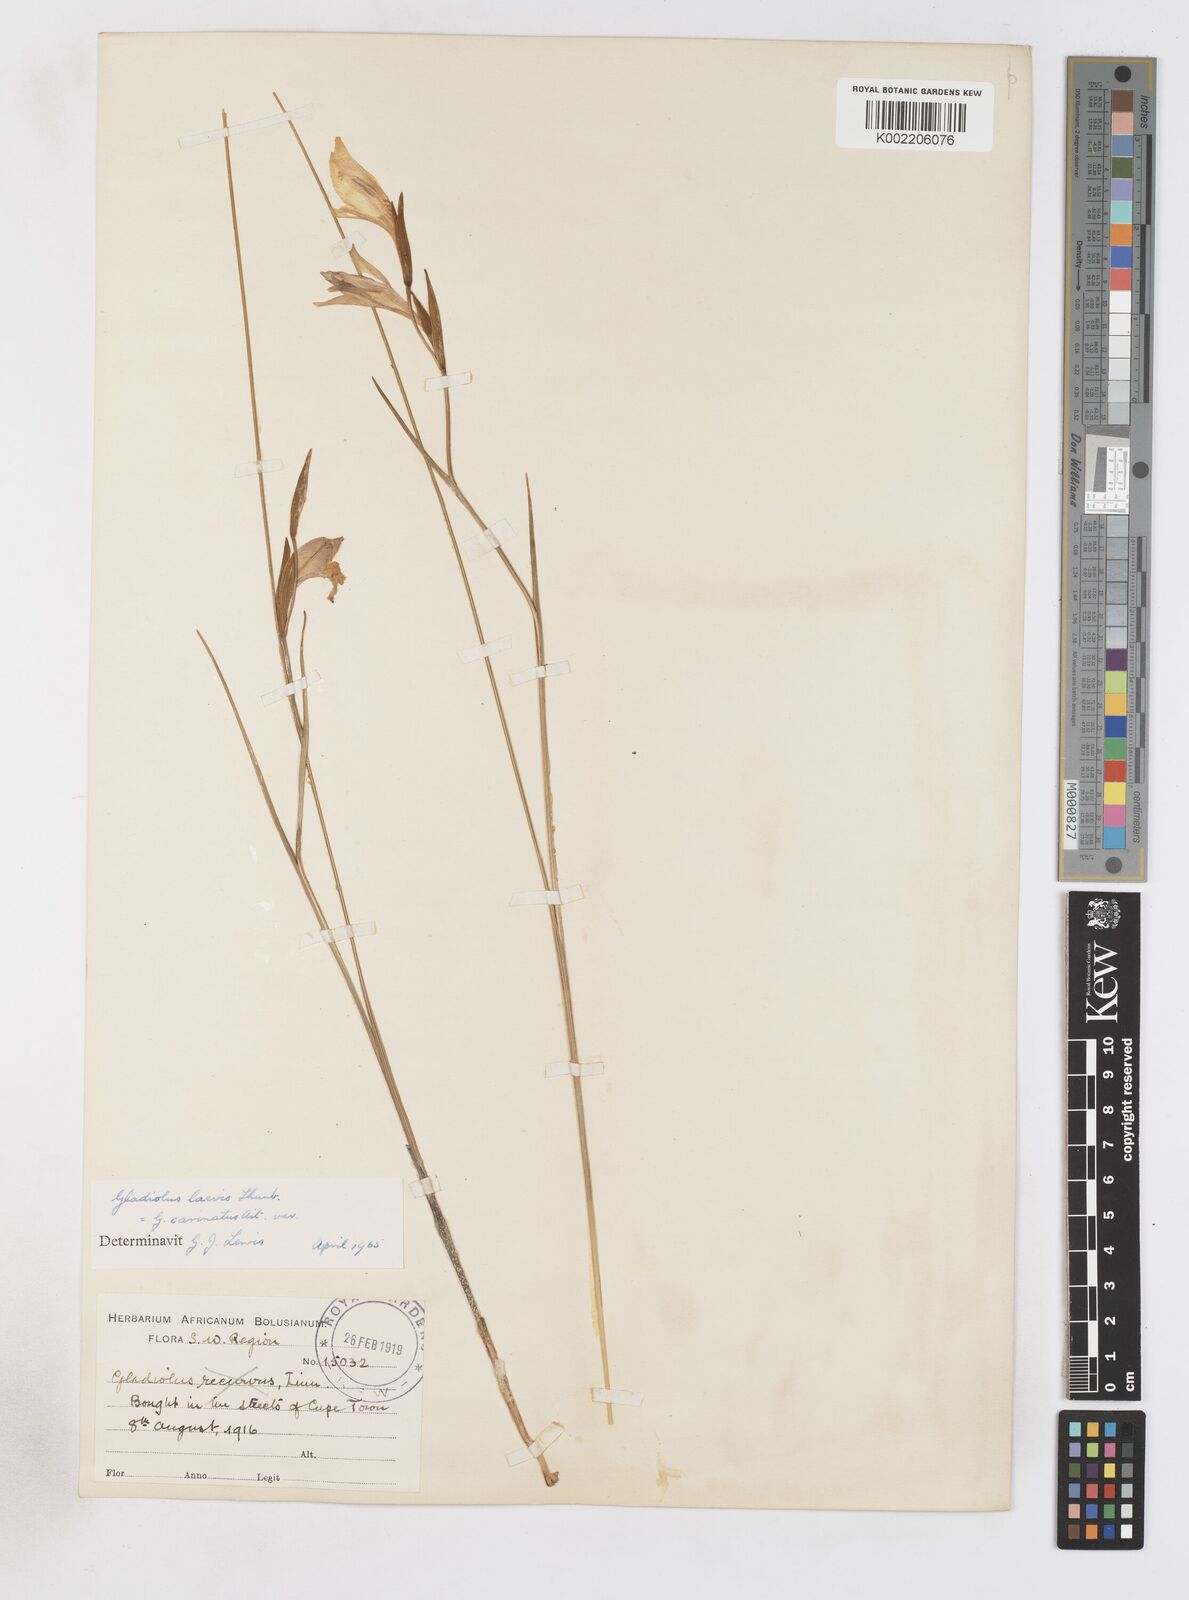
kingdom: Plantae
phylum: Tracheophyta
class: Liliopsida
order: Asparagales
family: Iridaceae
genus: Gladiolus
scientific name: Gladiolus carinatus
